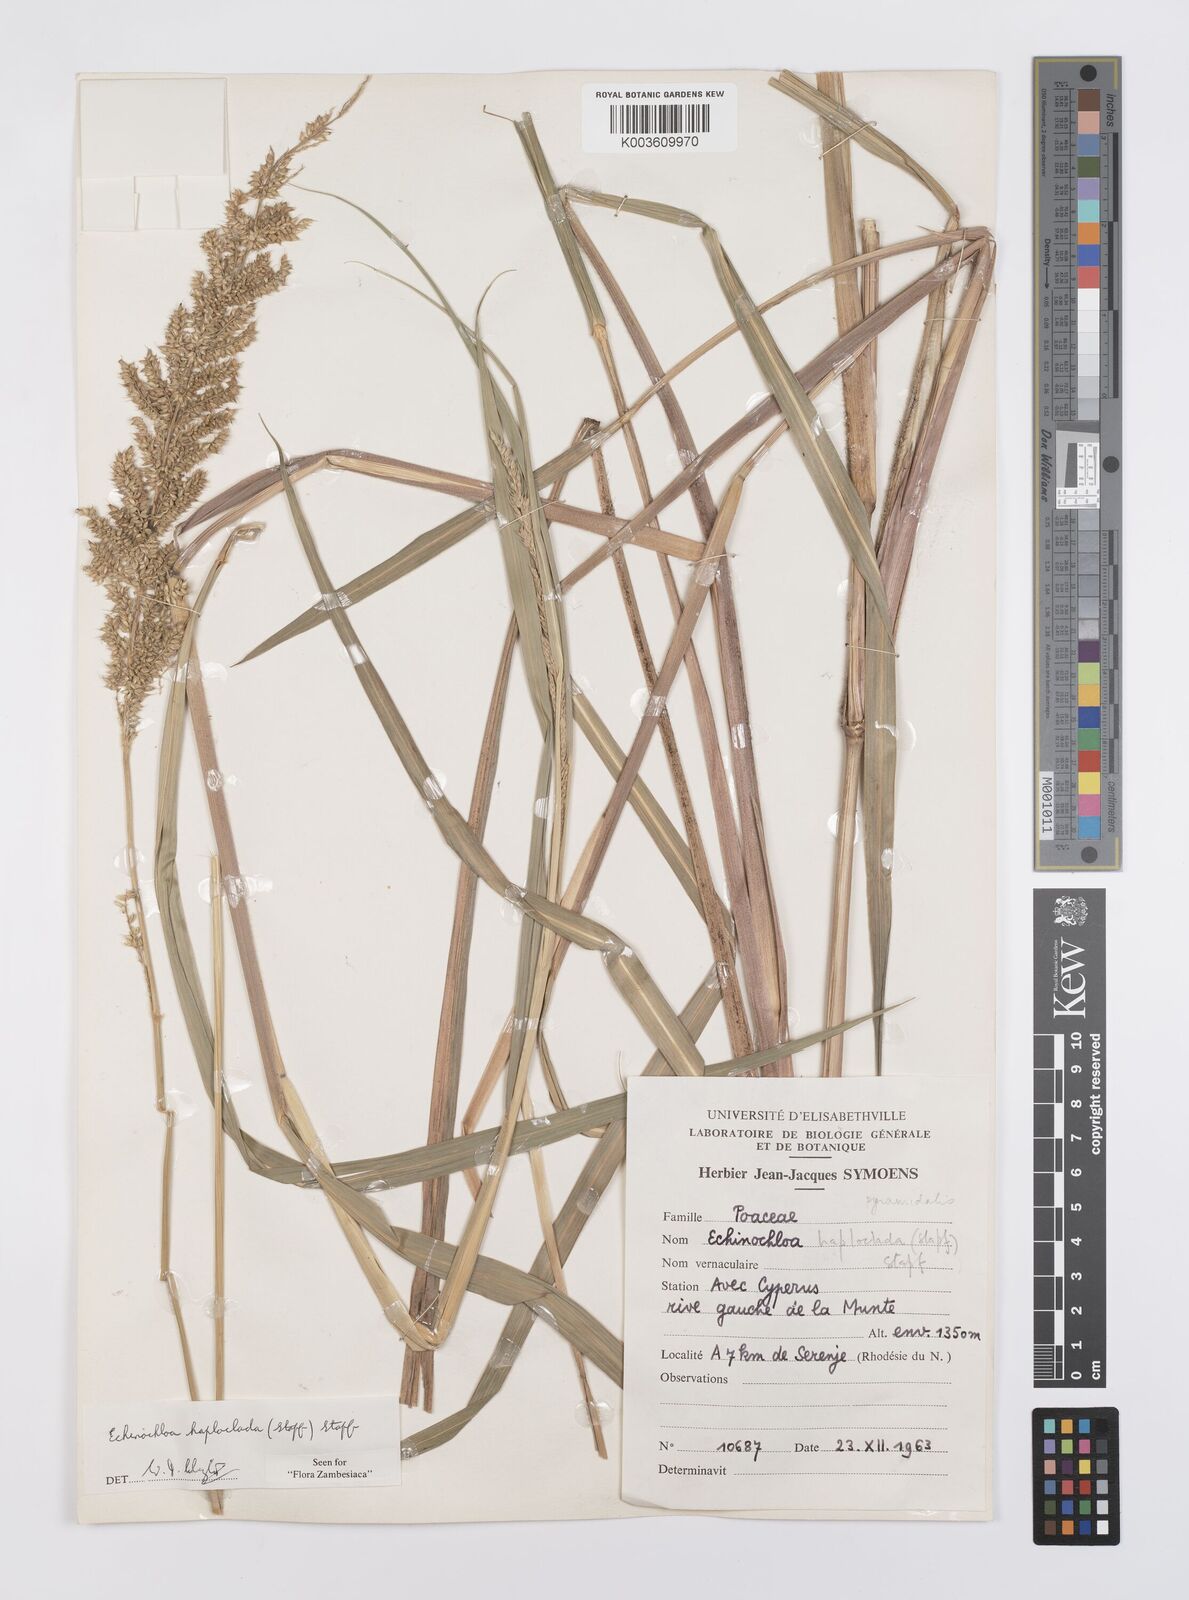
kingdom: Plantae
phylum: Tracheophyta
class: Liliopsida
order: Poales
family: Poaceae
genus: Echinochloa
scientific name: Echinochloa haploclada
